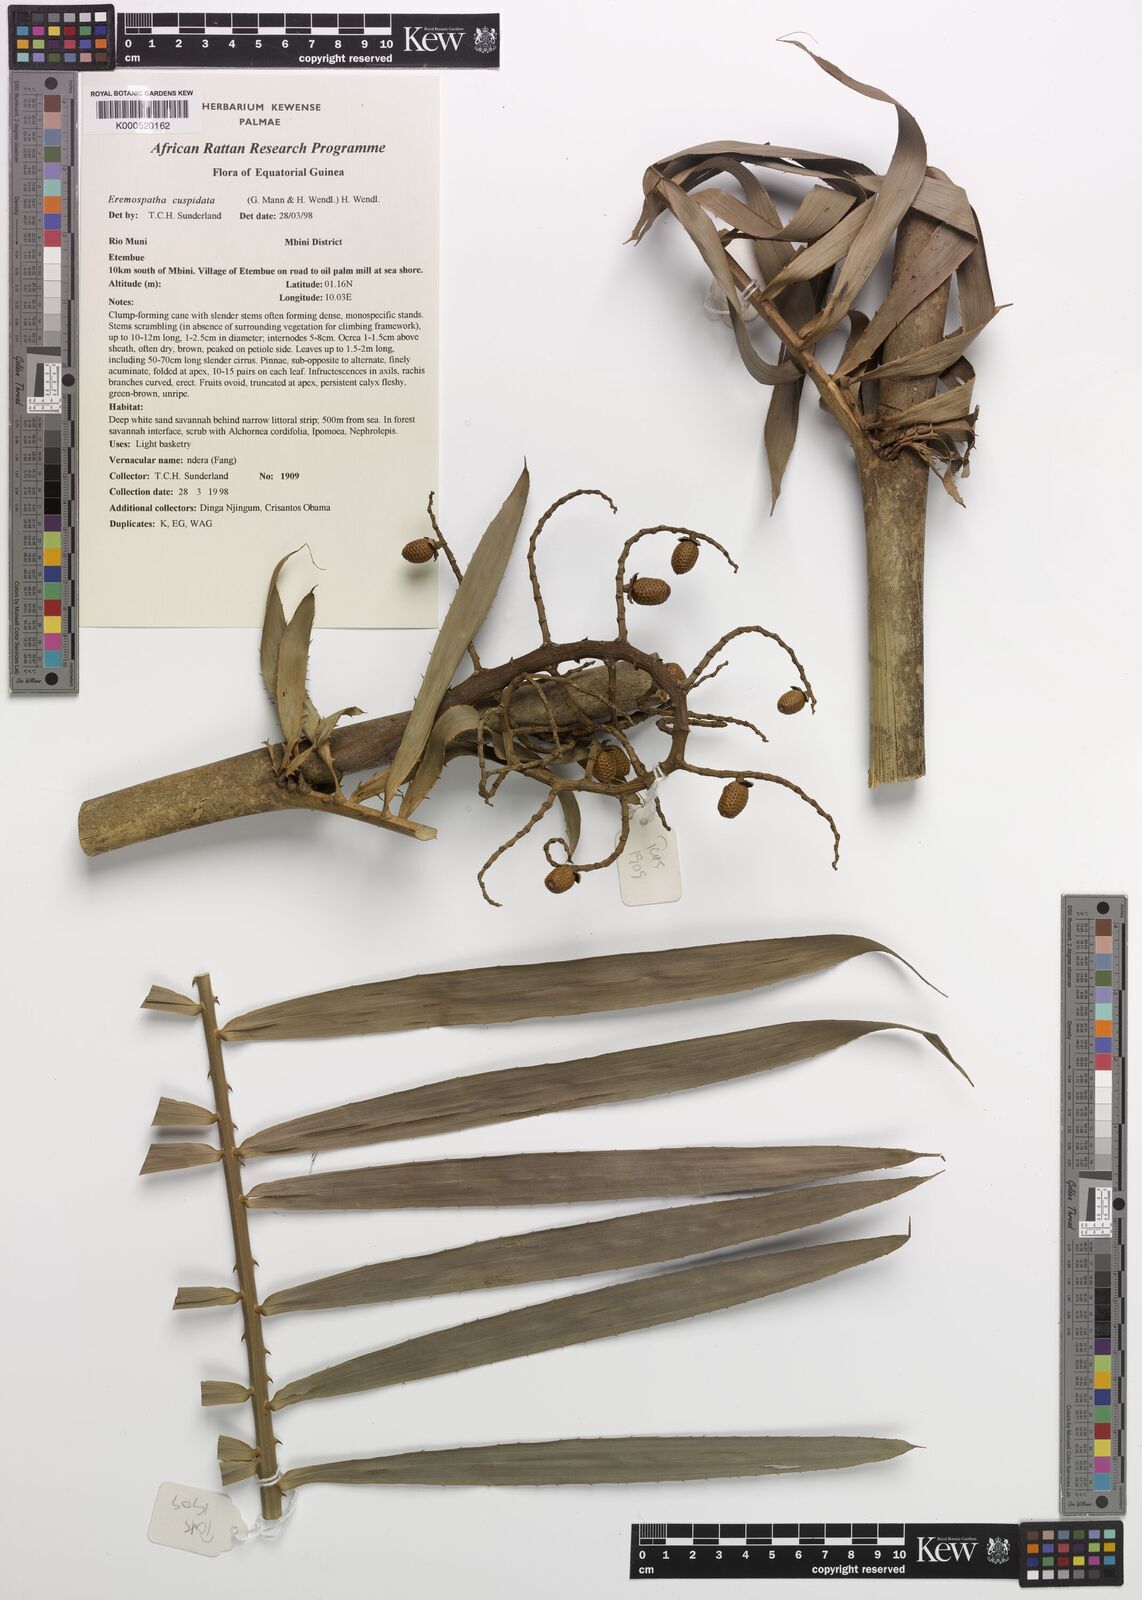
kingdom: Plantae
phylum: Tracheophyta
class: Liliopsida
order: Arecales
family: Arecaceae
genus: Eremospatha
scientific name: Eremospatha cuspidata
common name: Rattan
